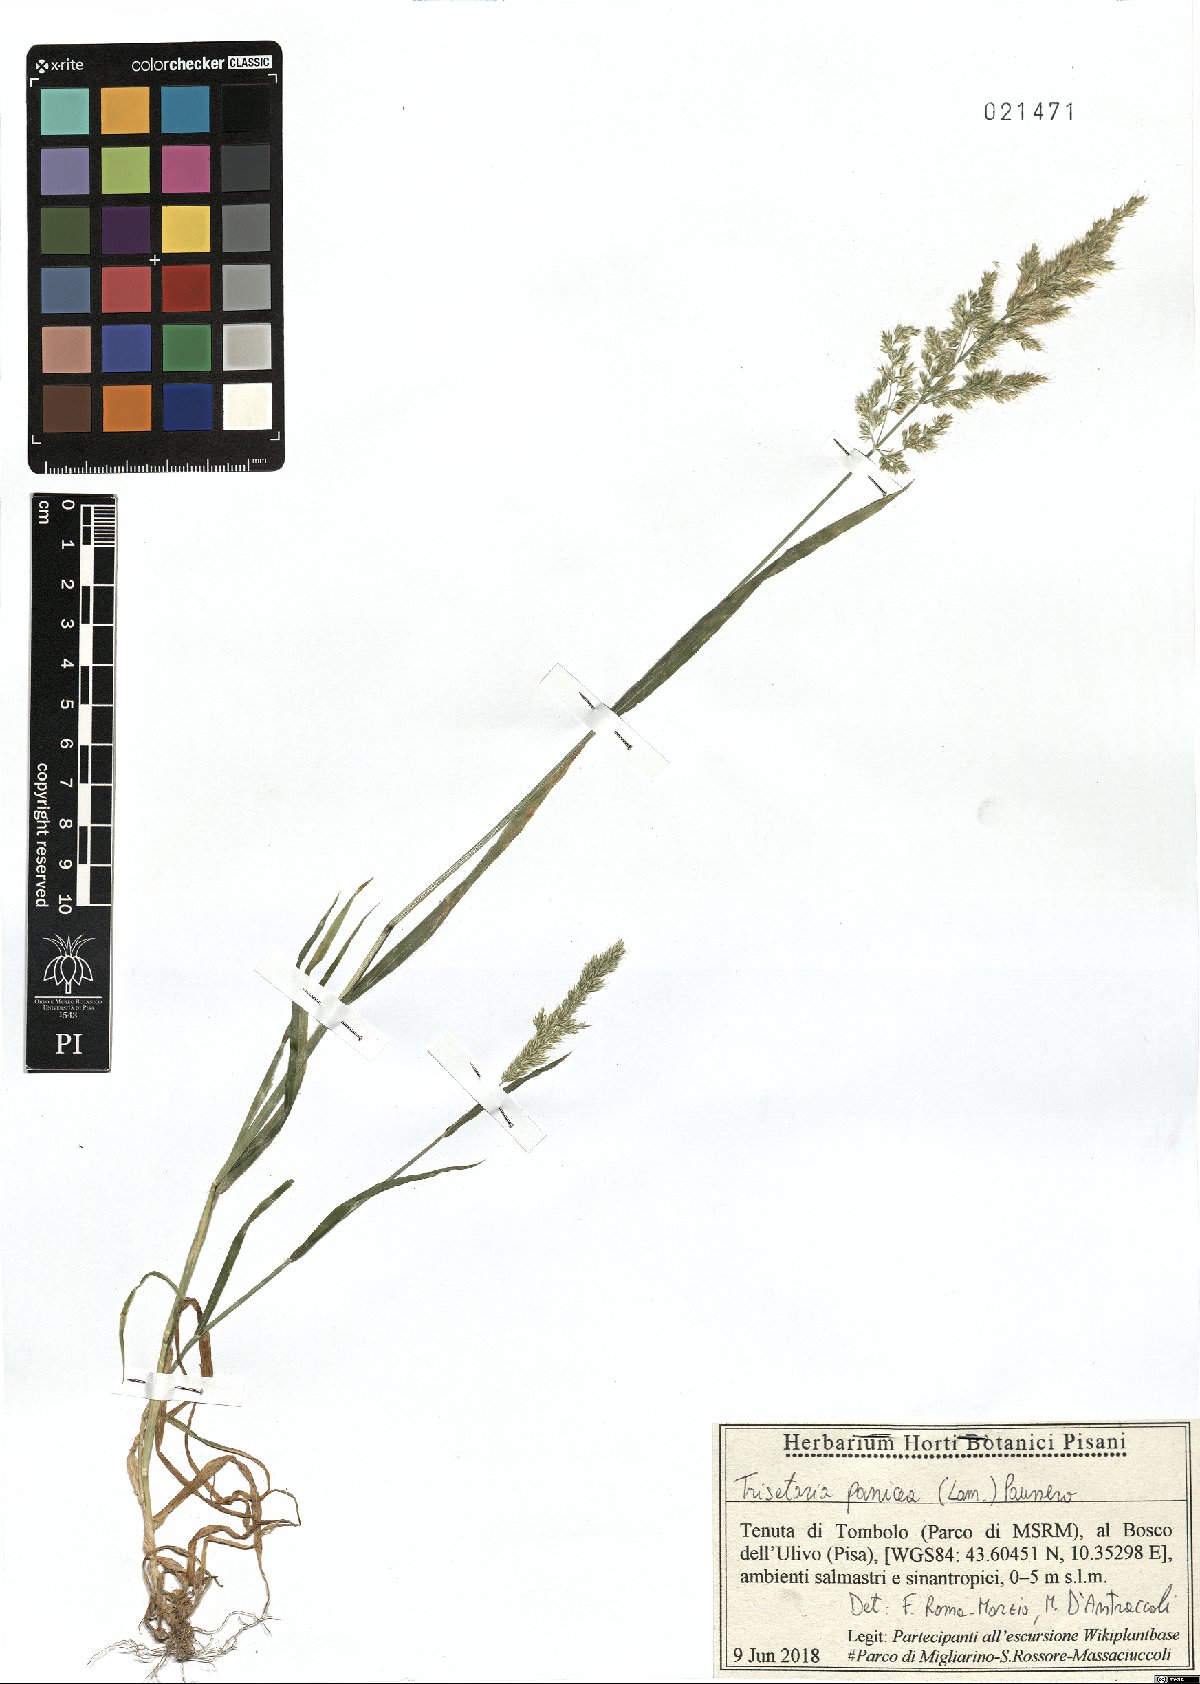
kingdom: Plantae
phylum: Tracheophyta
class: Liliopsida
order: Poales
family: Poaceae
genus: Trisetaria
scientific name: Trisetaria panicea
